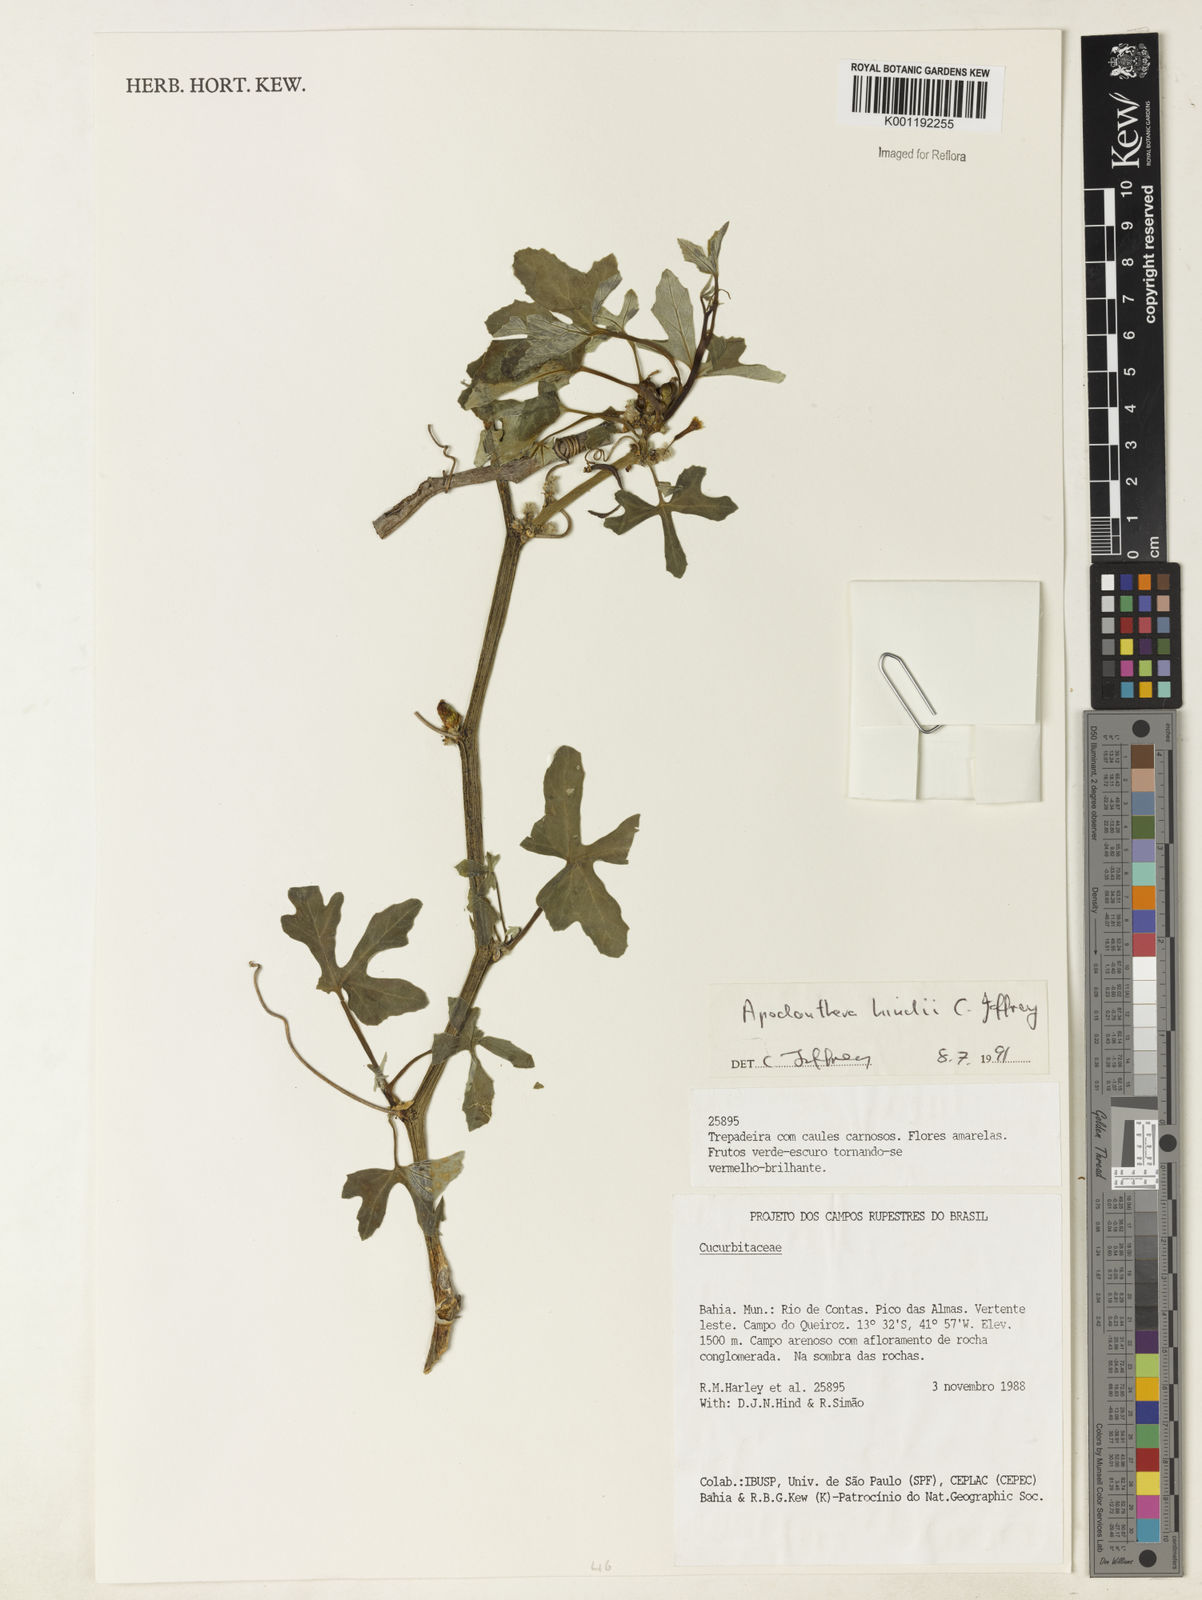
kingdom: Plantae
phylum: Tracheophyta
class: Magnoliopsida
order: Cucurbitales
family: Cucurbitaceae
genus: Apodanthera
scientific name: Apodanthera hindii
